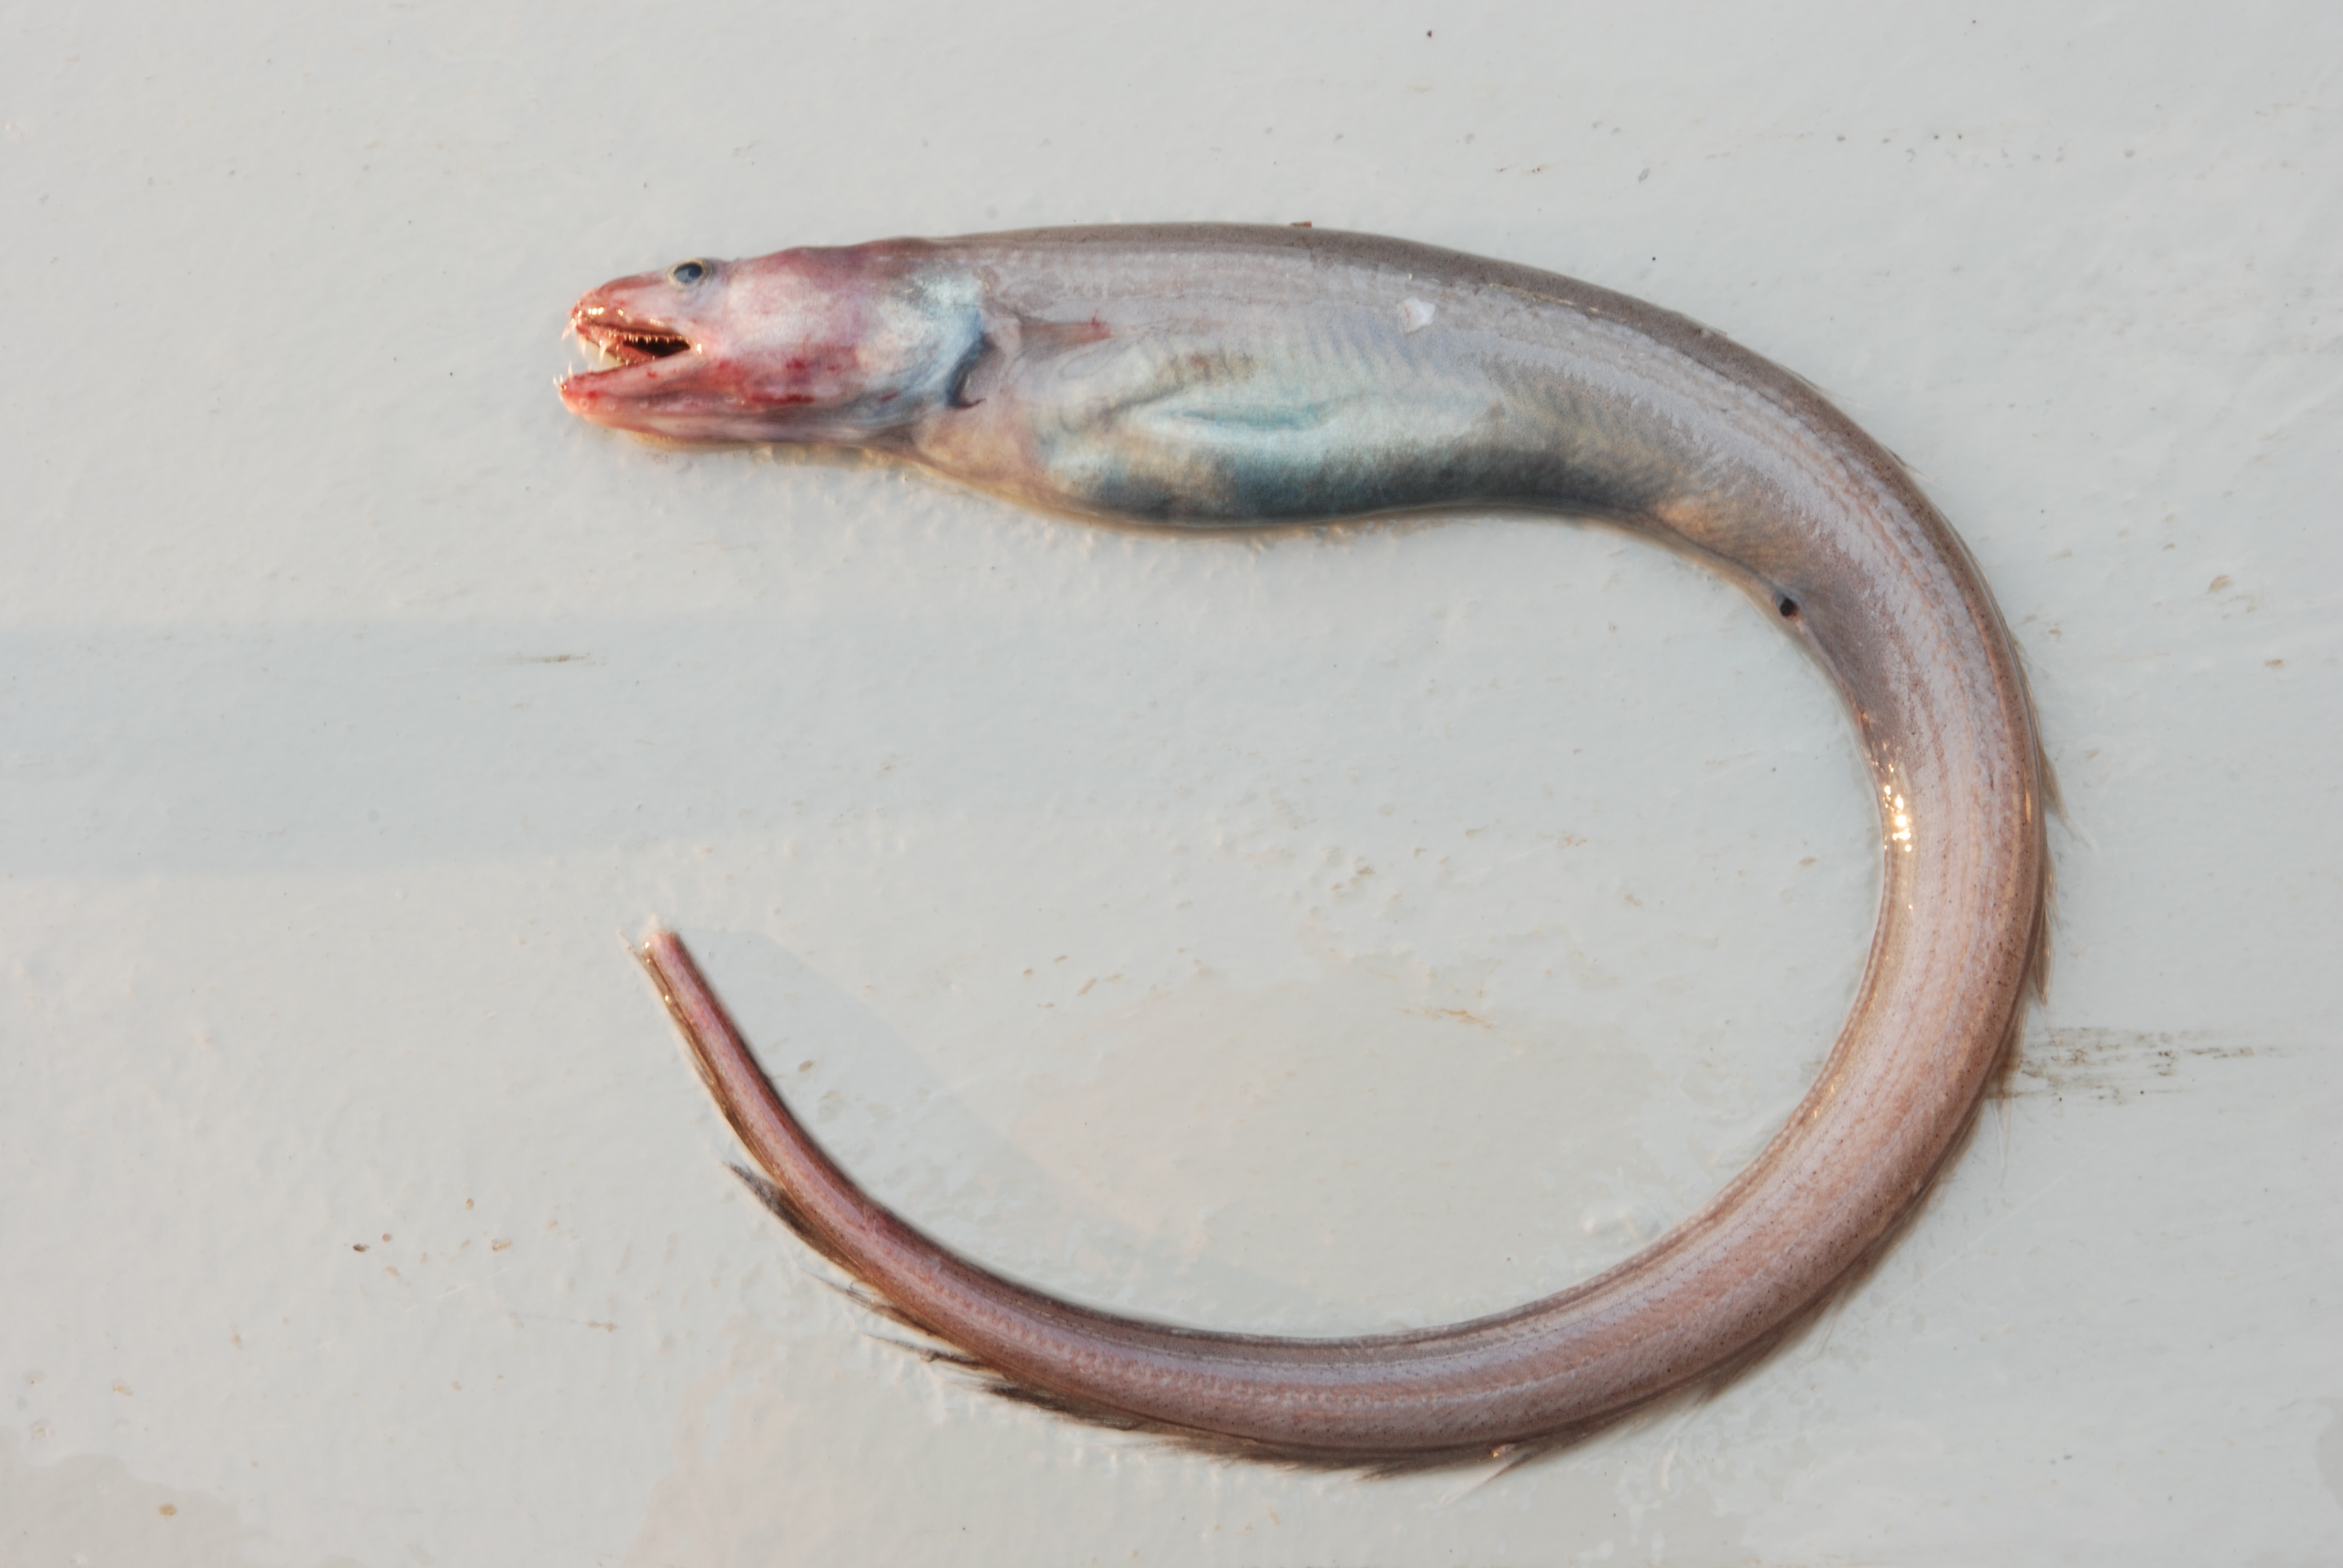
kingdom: Animalia
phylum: Chordata
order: Anguilliformes
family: Congridae
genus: Bathyuroconger
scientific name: Bathyuroconger vicinus
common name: Large-toothed conger
